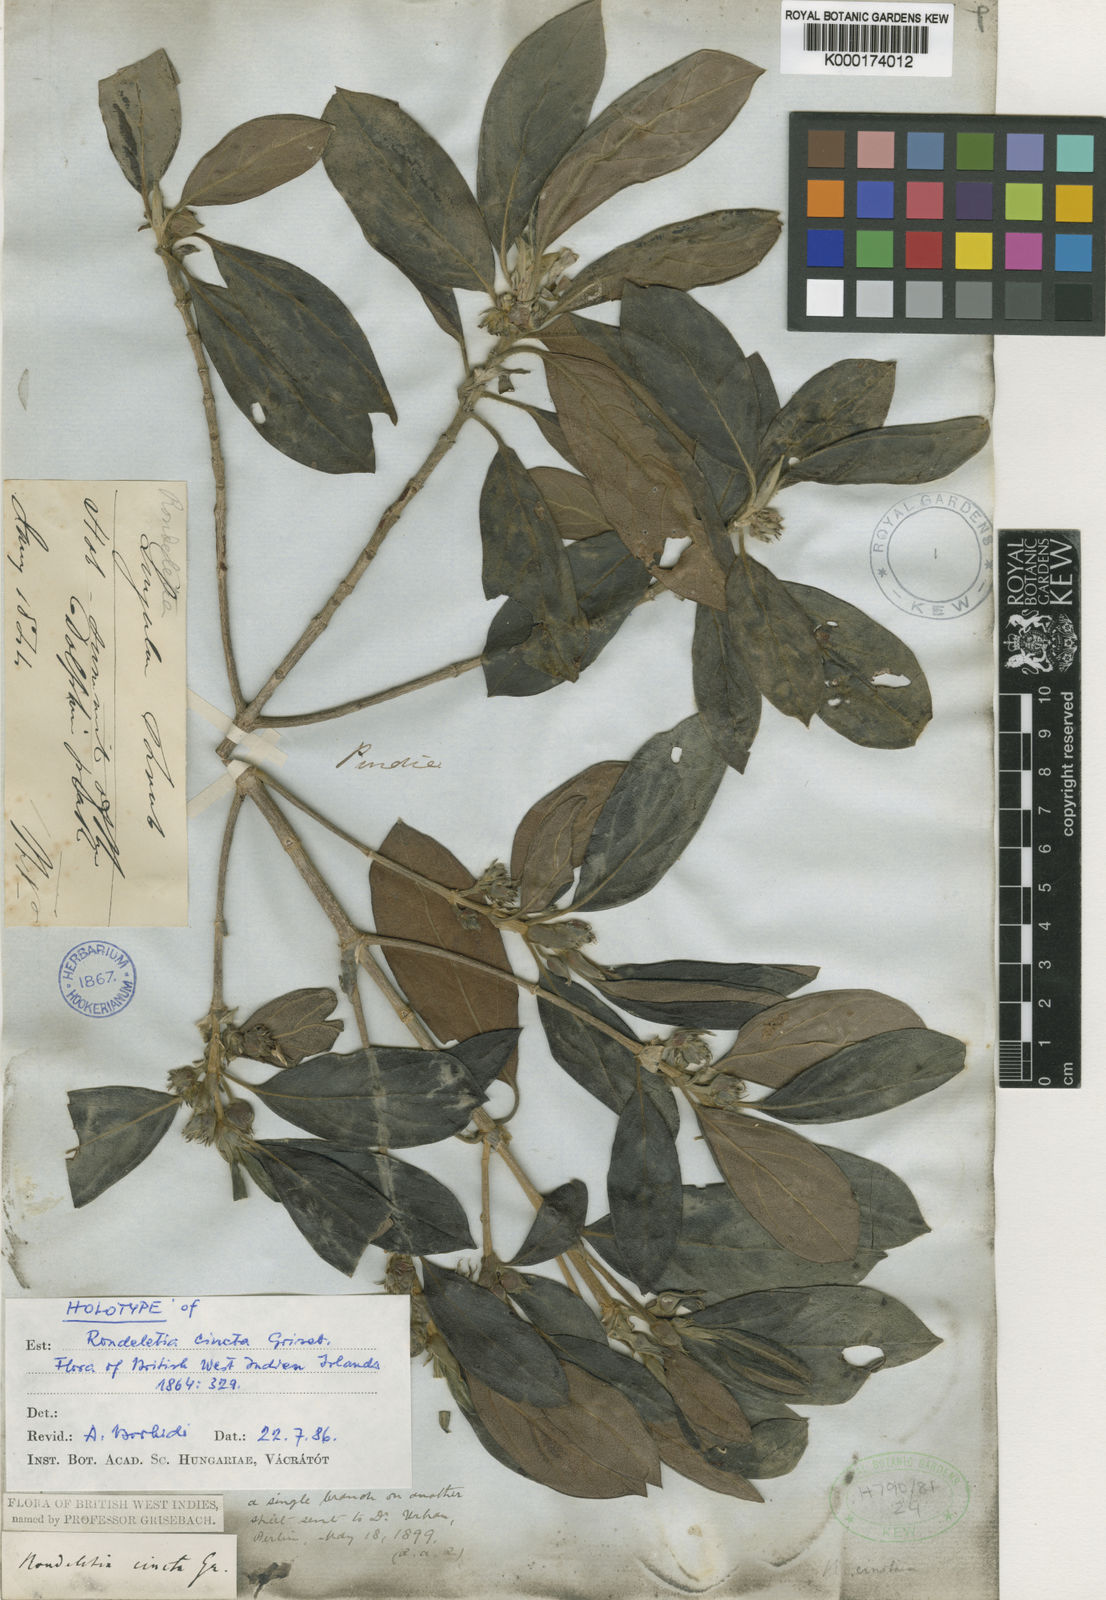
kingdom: Plantae
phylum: Tracheophyta
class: Magnoliopsida
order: Gentianales
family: Rubiaceae
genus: Rondeletia
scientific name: Rondeletia cincta
